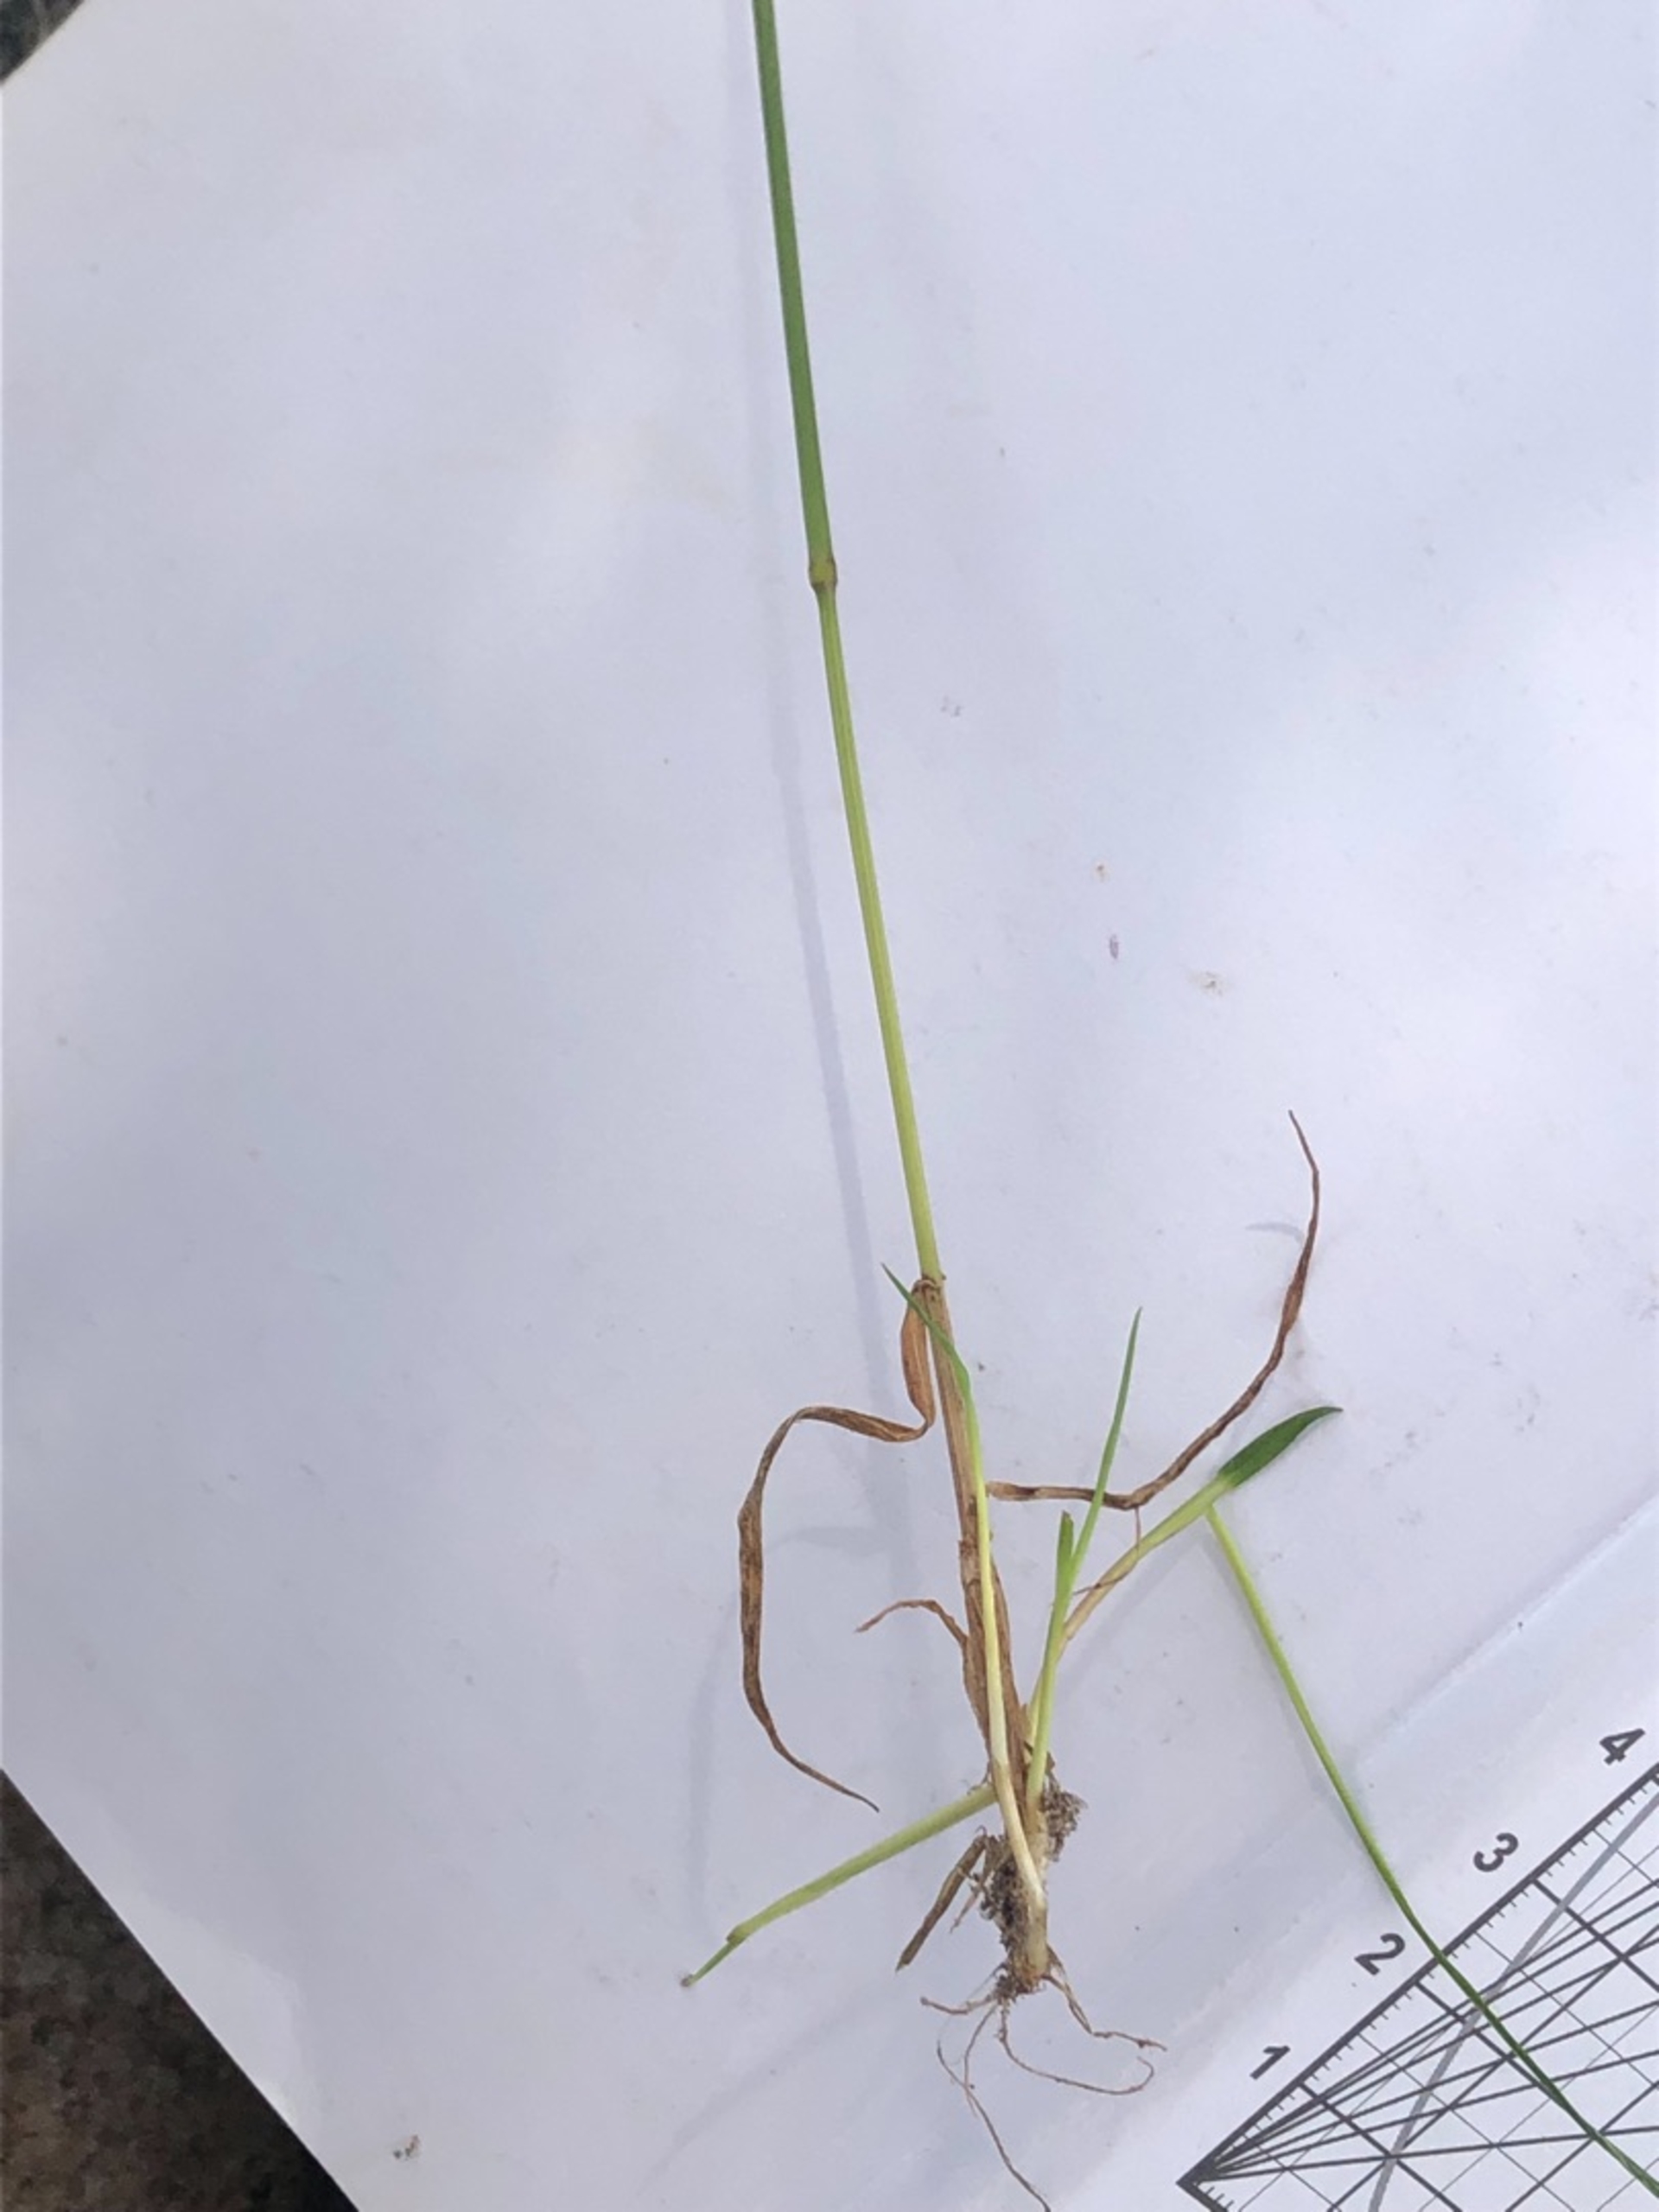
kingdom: Plantae
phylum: Tracheophyta
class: Liliopsida
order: Poales
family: Poaceae
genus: Anthoxanthum
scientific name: Anthoxanthum odoratum
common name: Vellugtende gulaks
